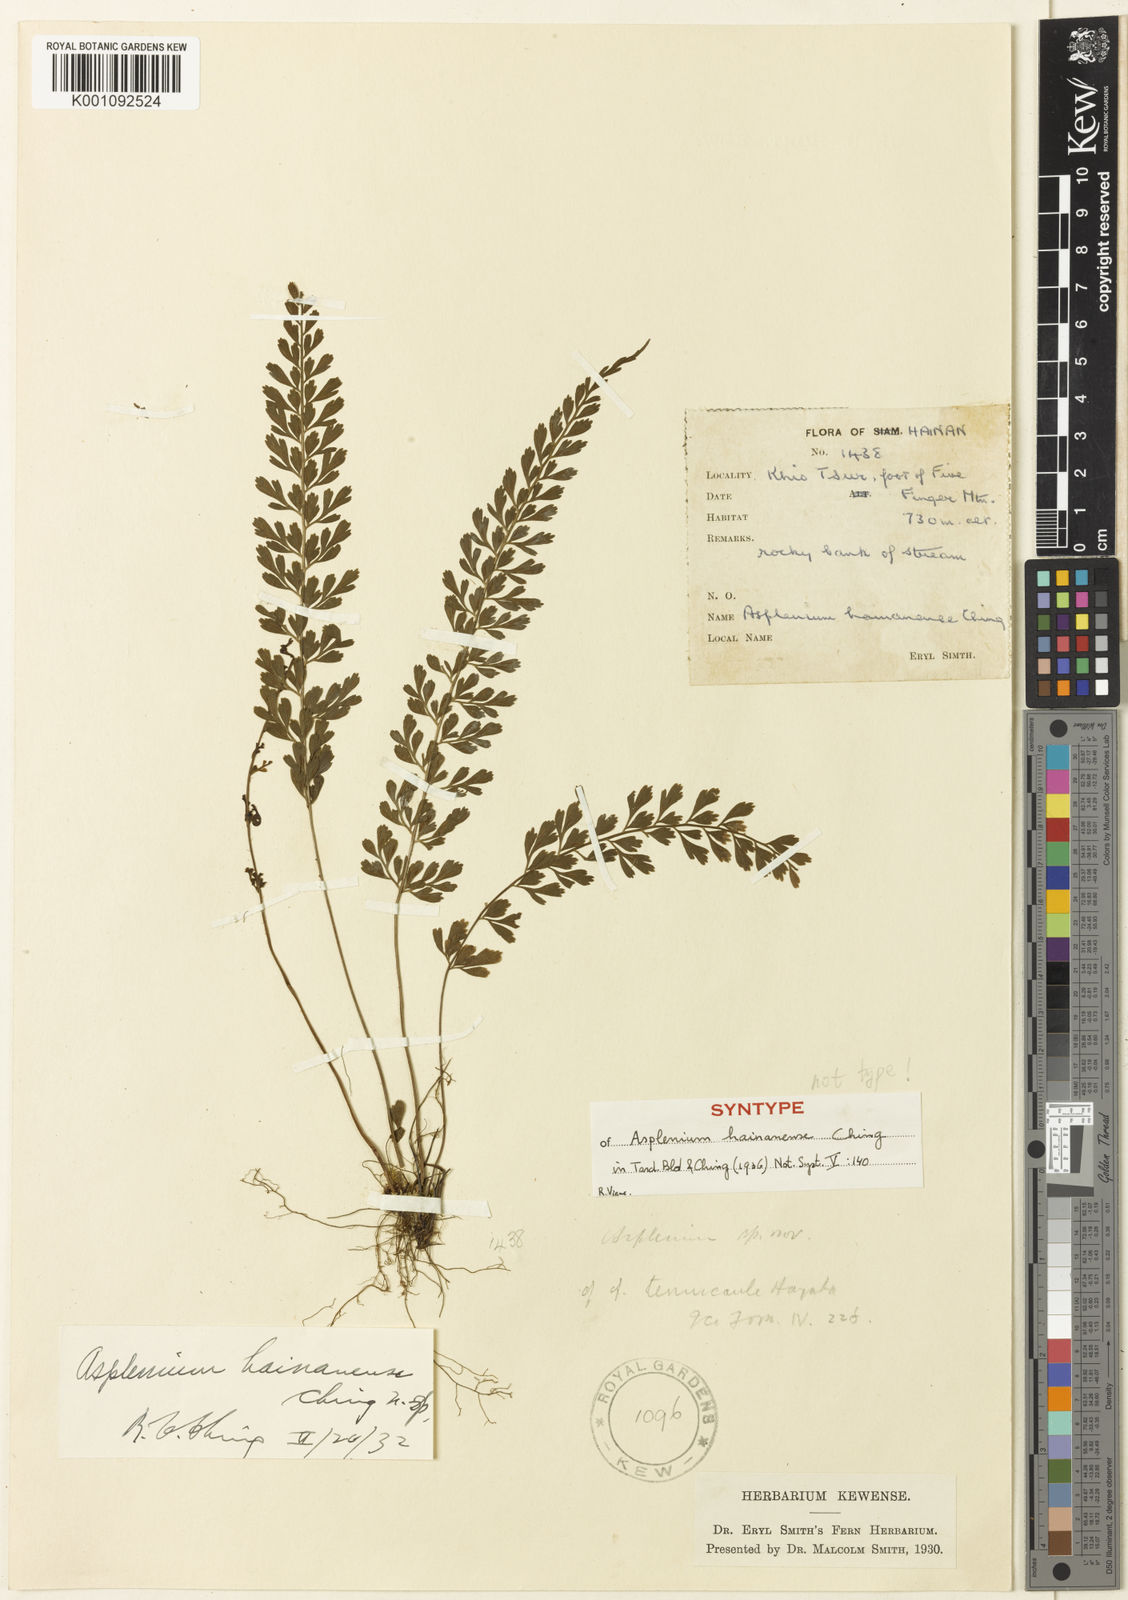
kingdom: Plantae
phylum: Tracheophyta
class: Polypodiopsida
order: Polypodiales
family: Aspleniaceae
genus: Asplenium
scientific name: Asplenium hainanense
